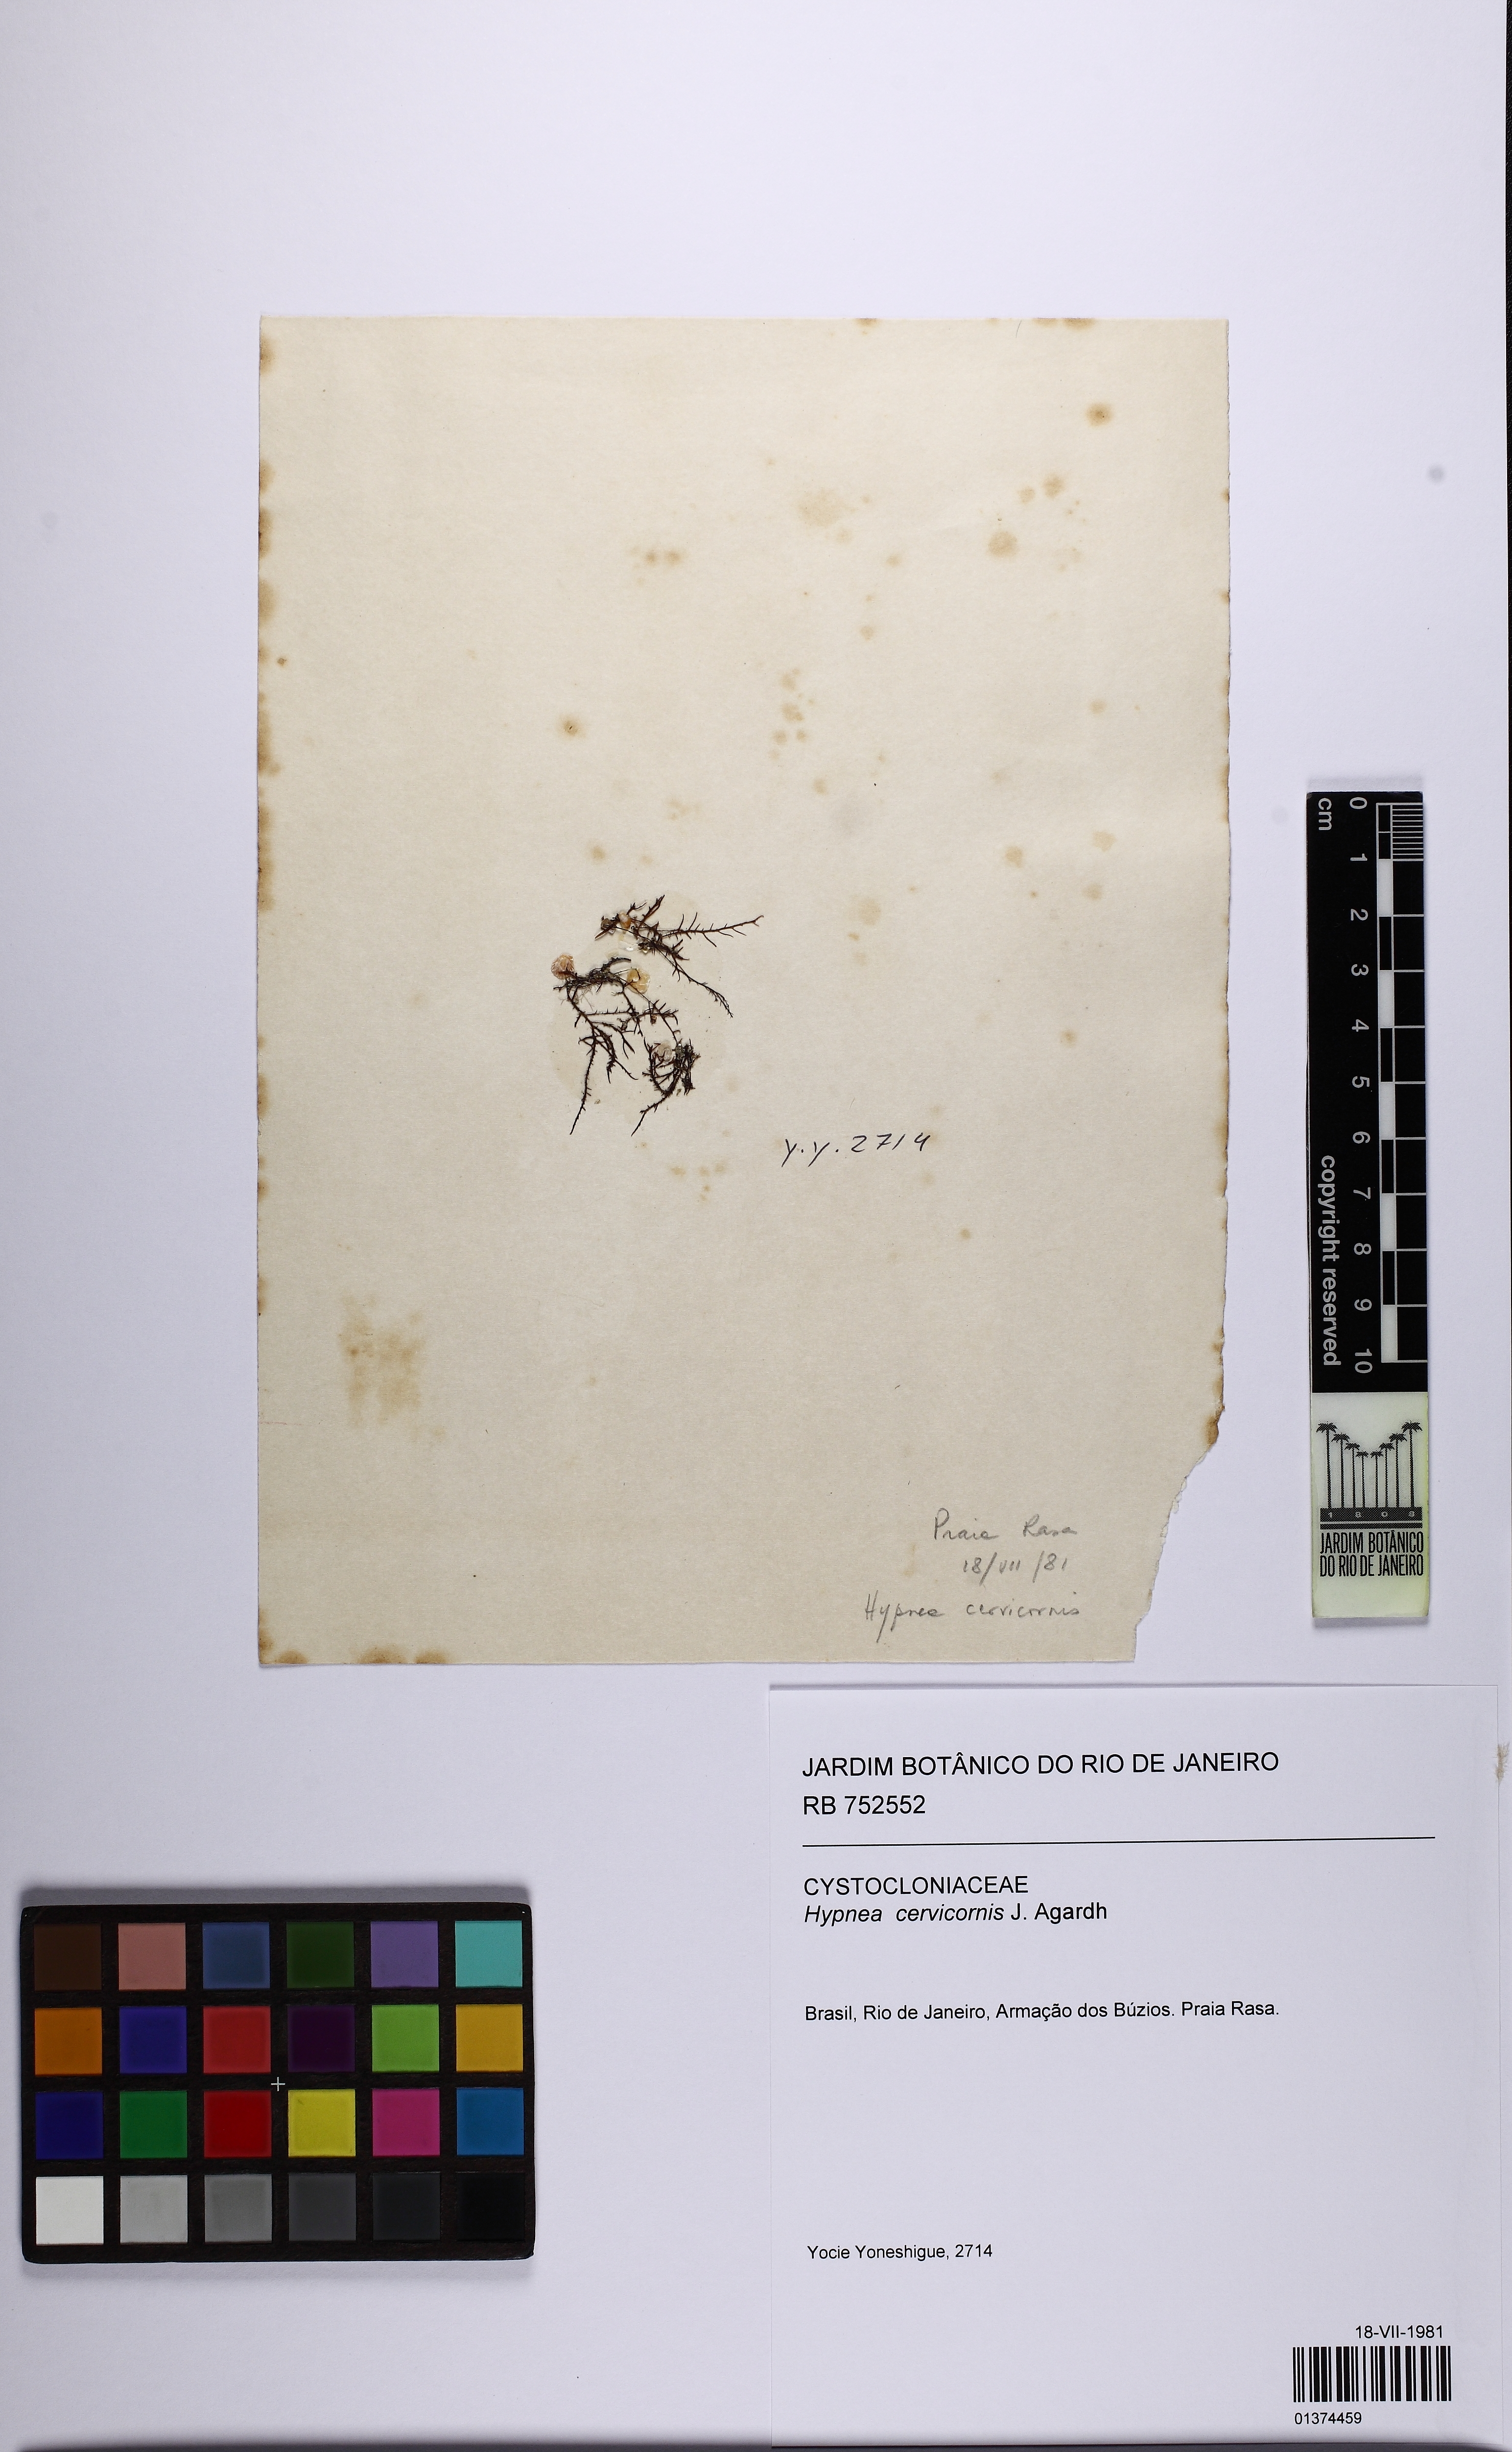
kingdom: Plantae
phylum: Rhodophyta
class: Florideophyceae
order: Gigartinales
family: Cystocloniaceae
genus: Hypnea
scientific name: Hypnea cervicornis
